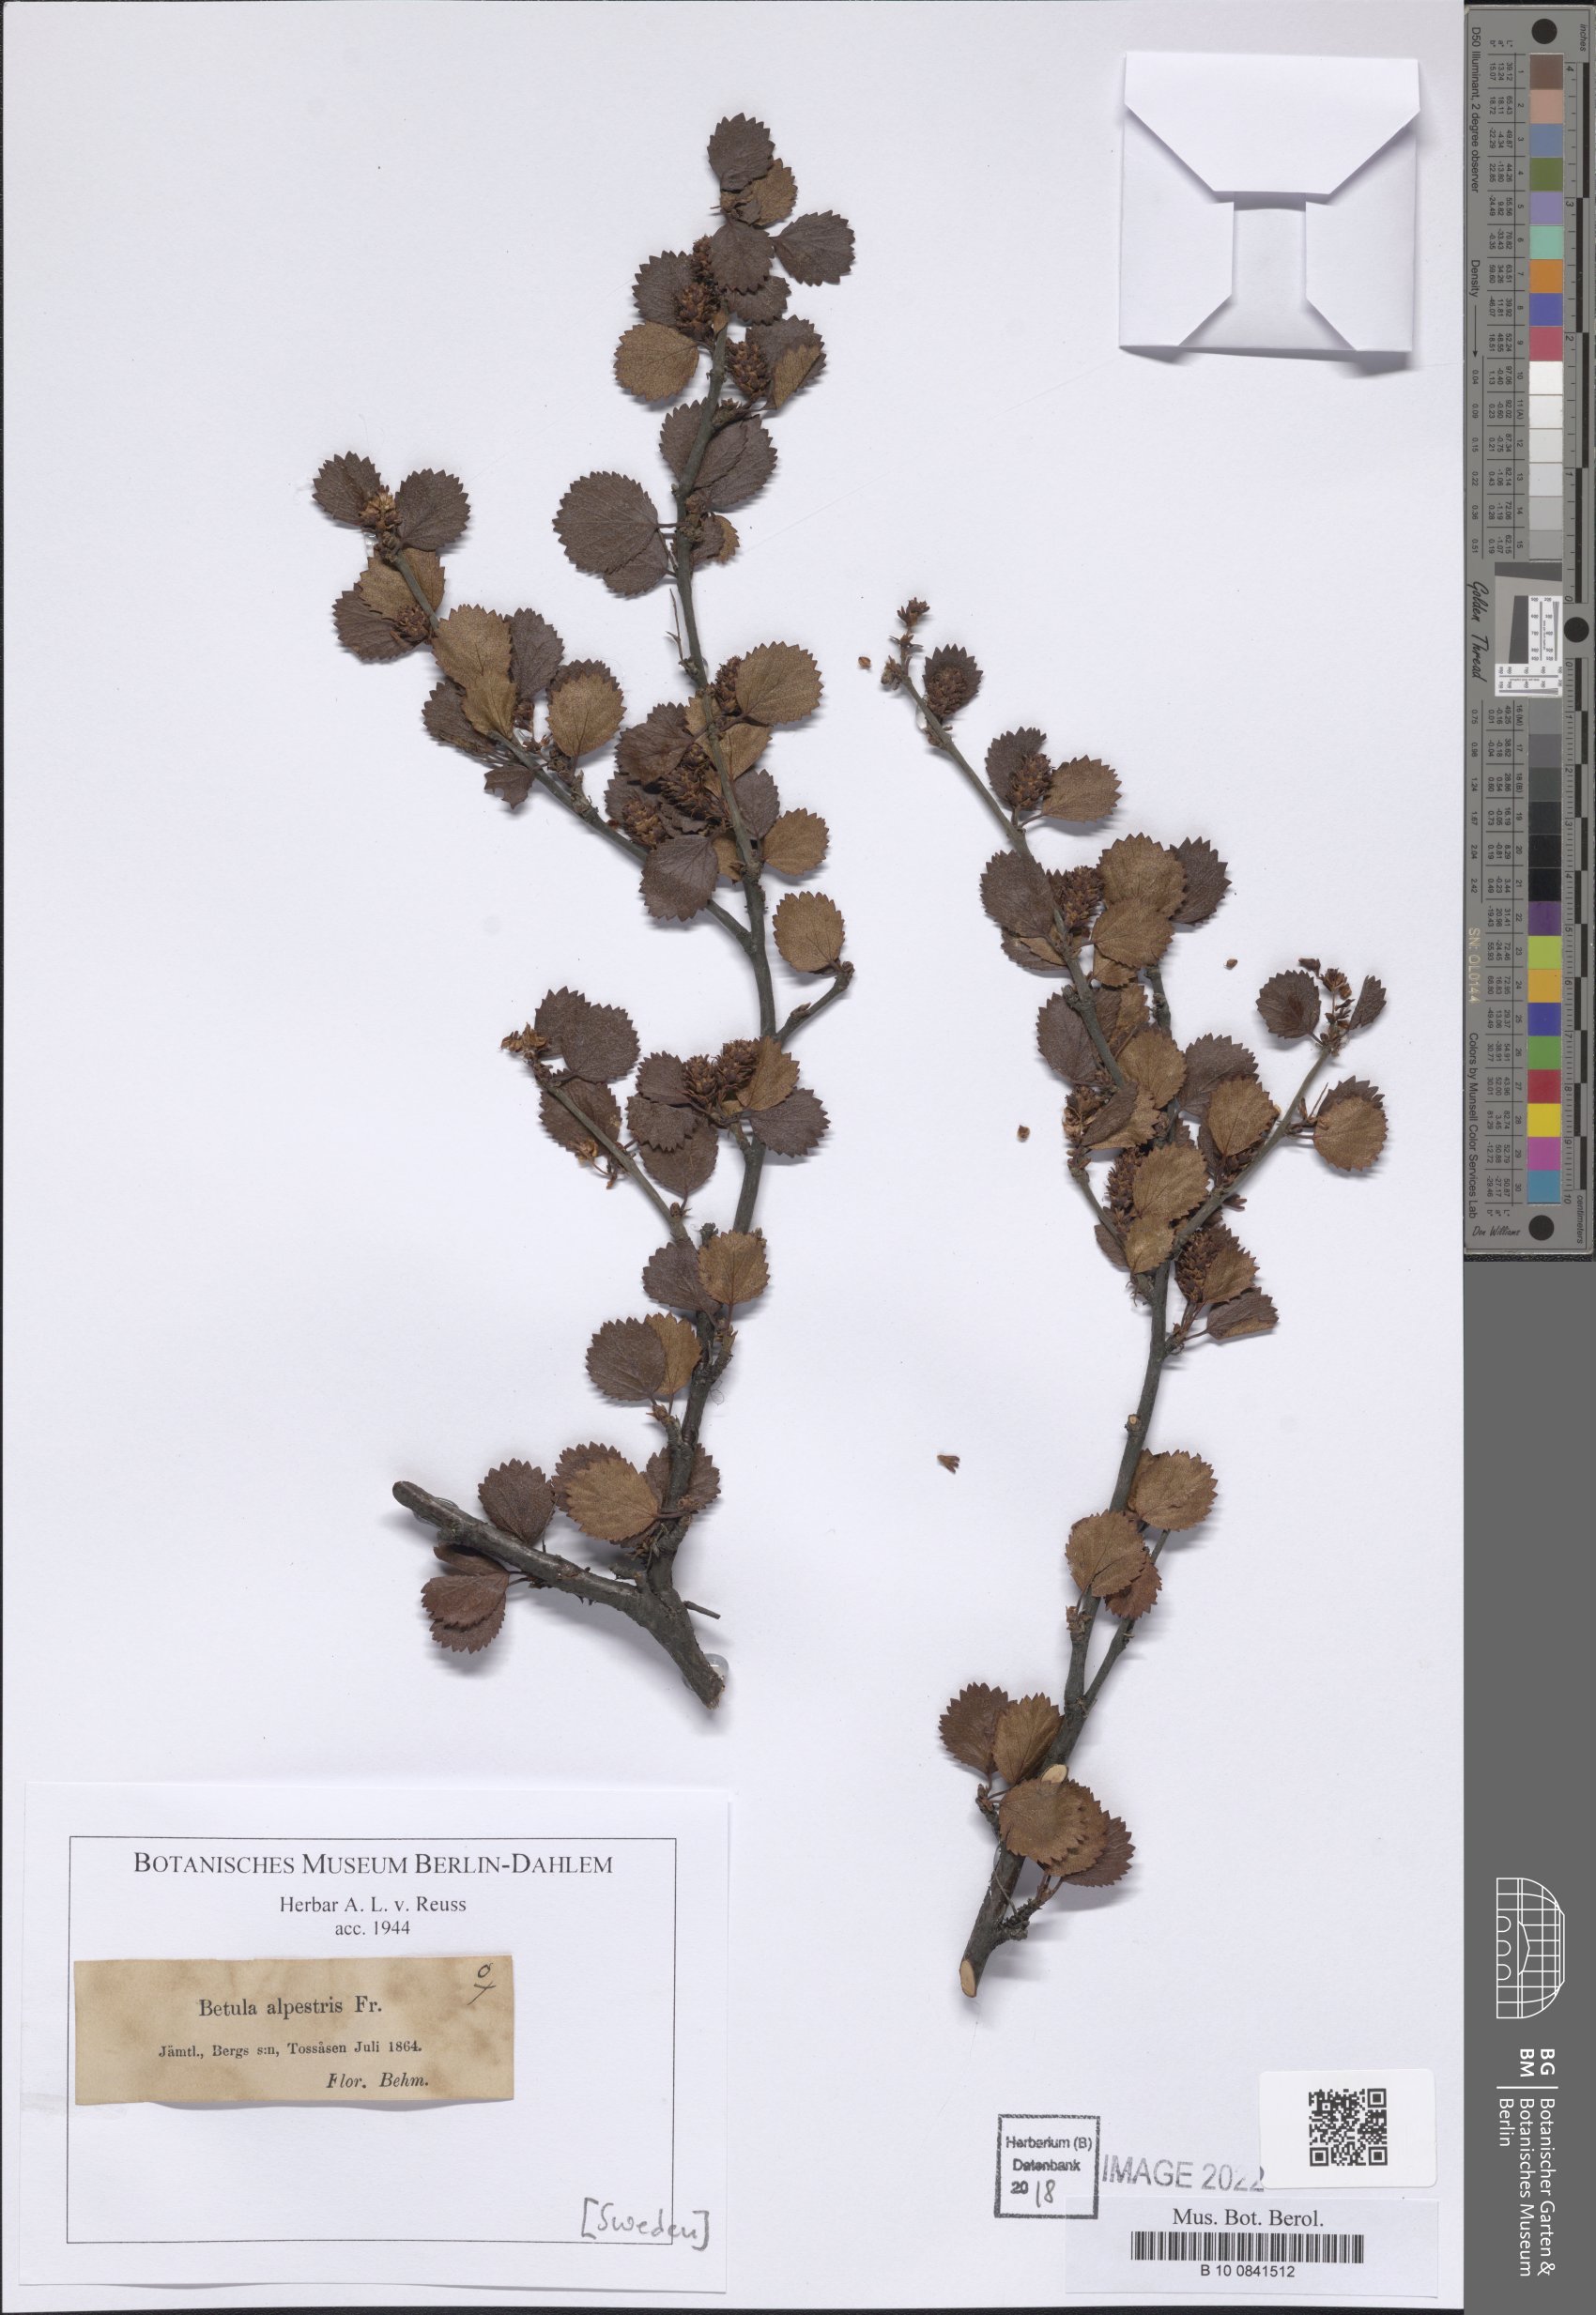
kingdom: Plantae
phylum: Tracheophyta
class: Magnoliopsida
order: Fagales
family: Betulaceae
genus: Betula
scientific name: Betula intermedia
